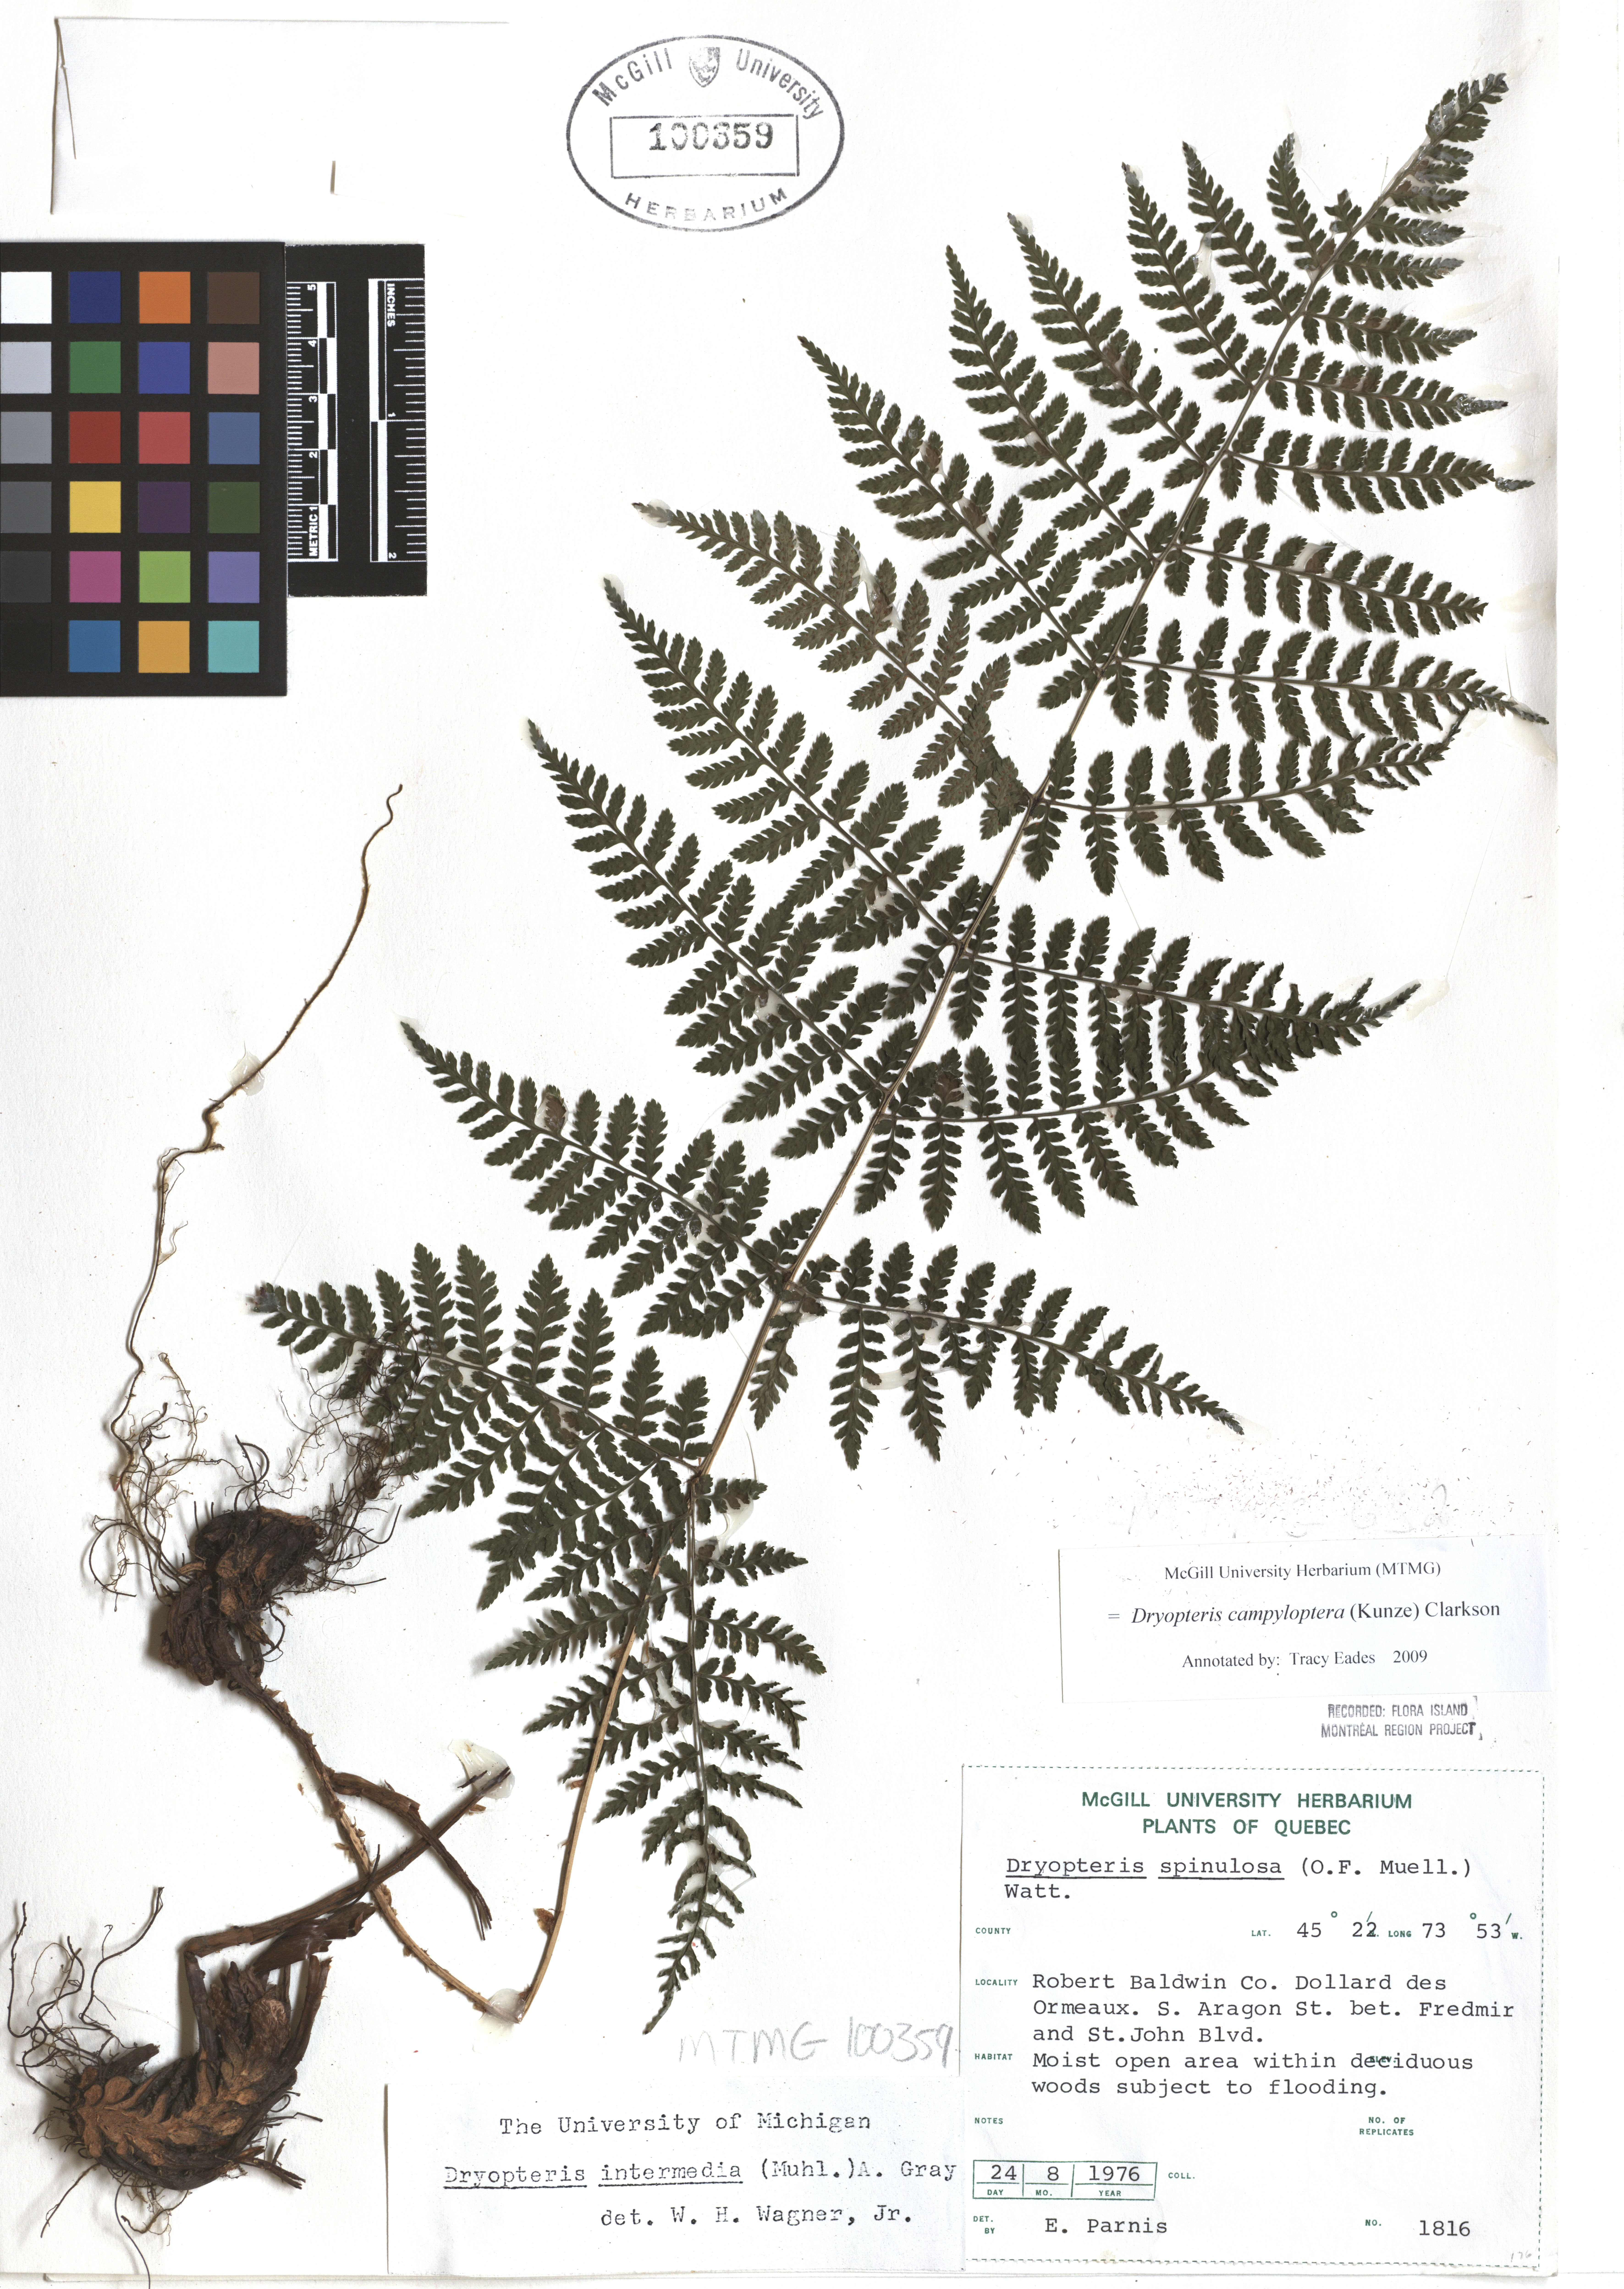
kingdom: Plantae
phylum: Tracheophyta
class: Polypodiopsida
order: Polypodiales
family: Dryopteridaceae
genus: Dryopteris
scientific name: Dryopteris campyloptera
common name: Mountain wood fern
